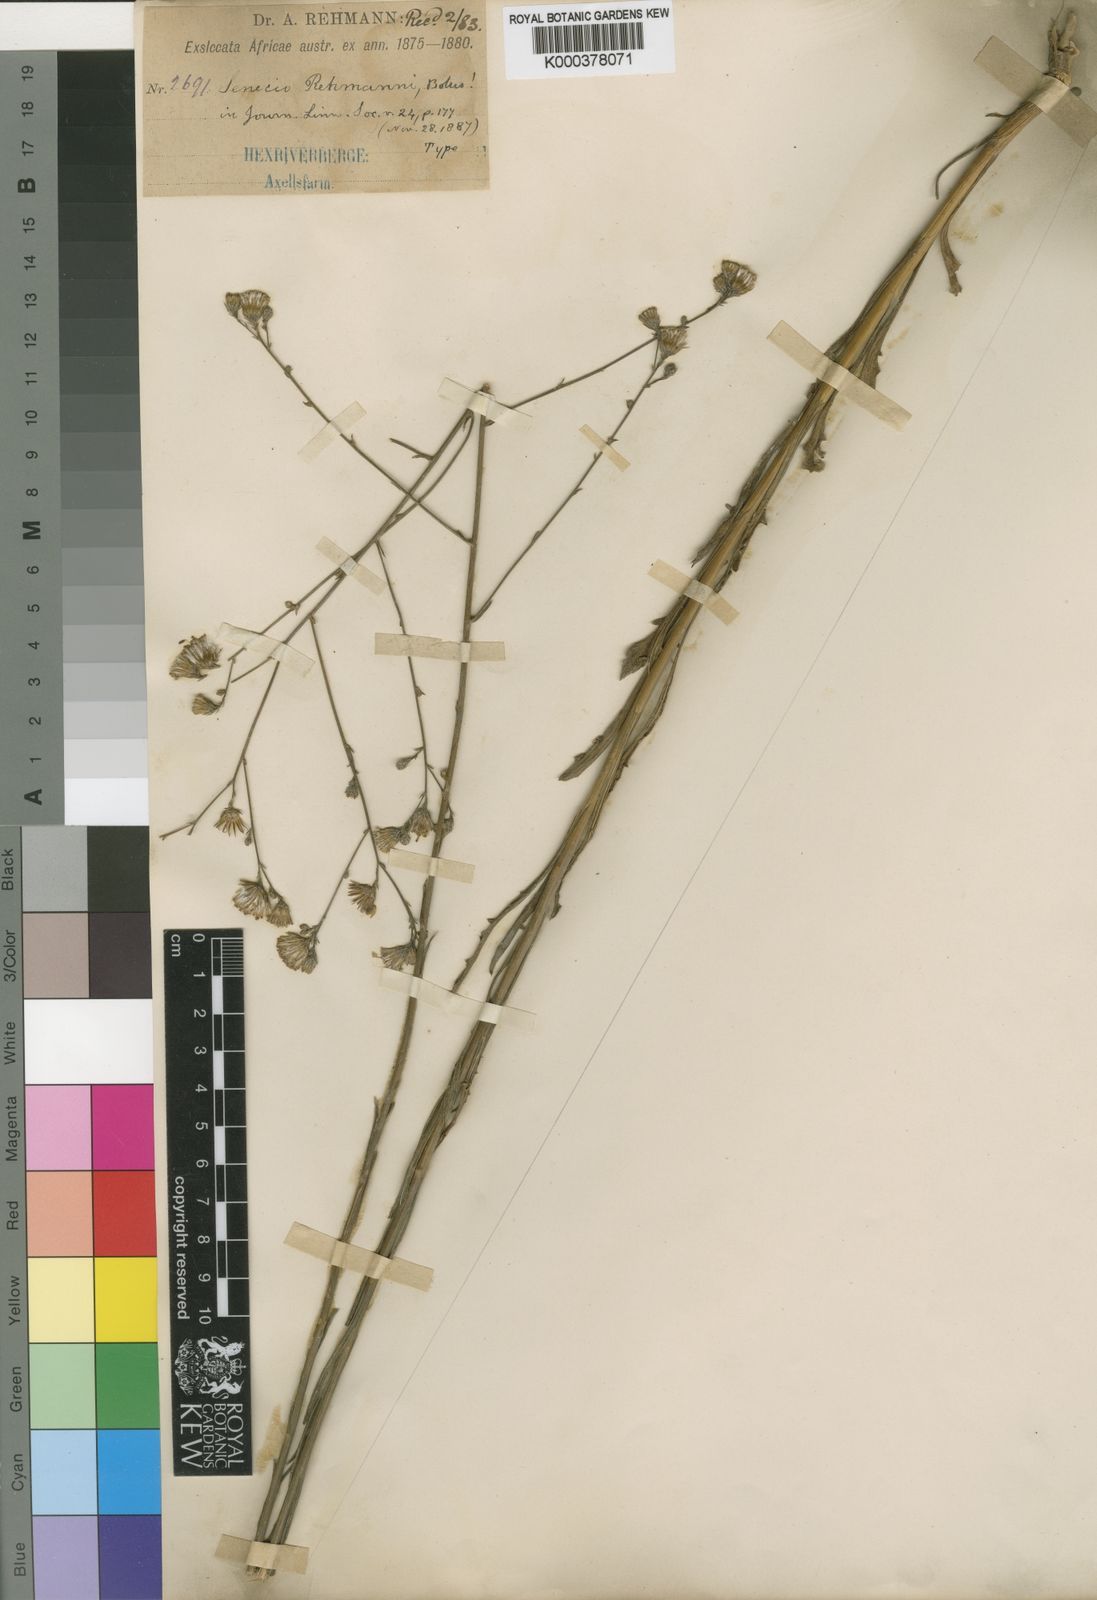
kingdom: Plantae
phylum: Tracheophyta
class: Magnoliopsida
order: Asterales
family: Asteraceae
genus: Senecio
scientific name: Senecio rehmannii
